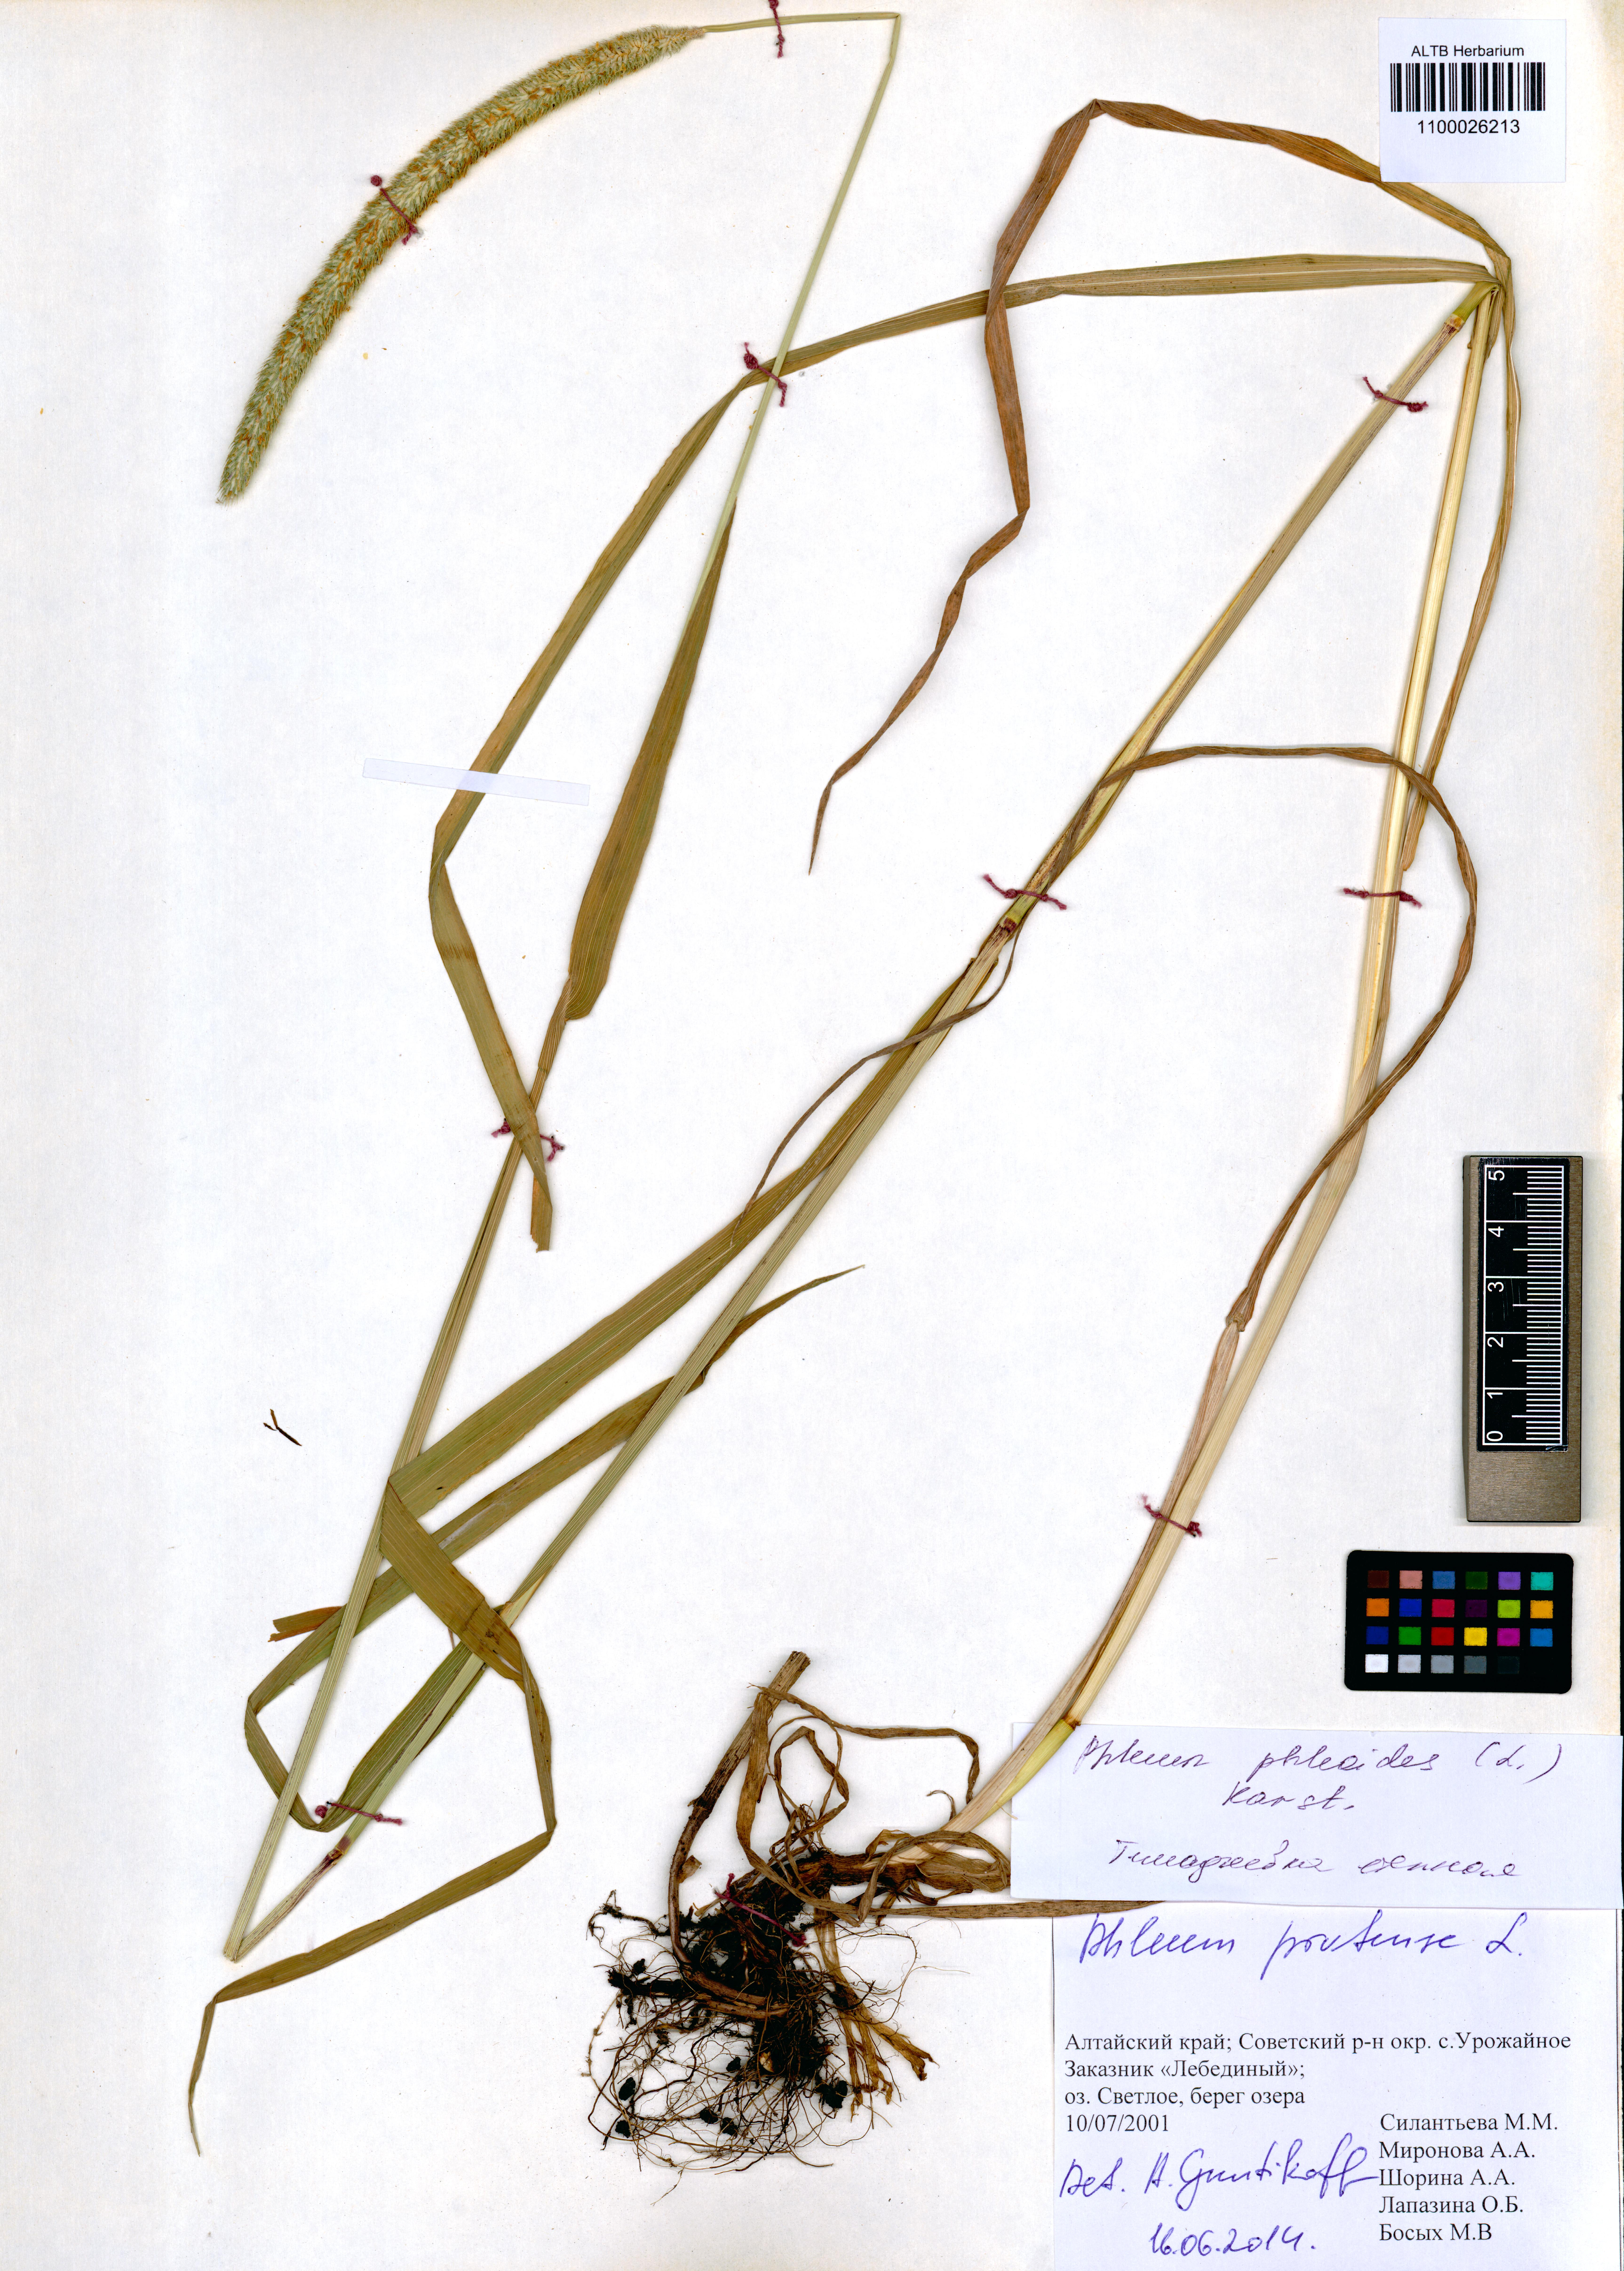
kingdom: Plantae
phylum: Tracheophyta
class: Liliopsida
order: Poales
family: Poaceae
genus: Phleum
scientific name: Phleum pratense
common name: Timothy grass
